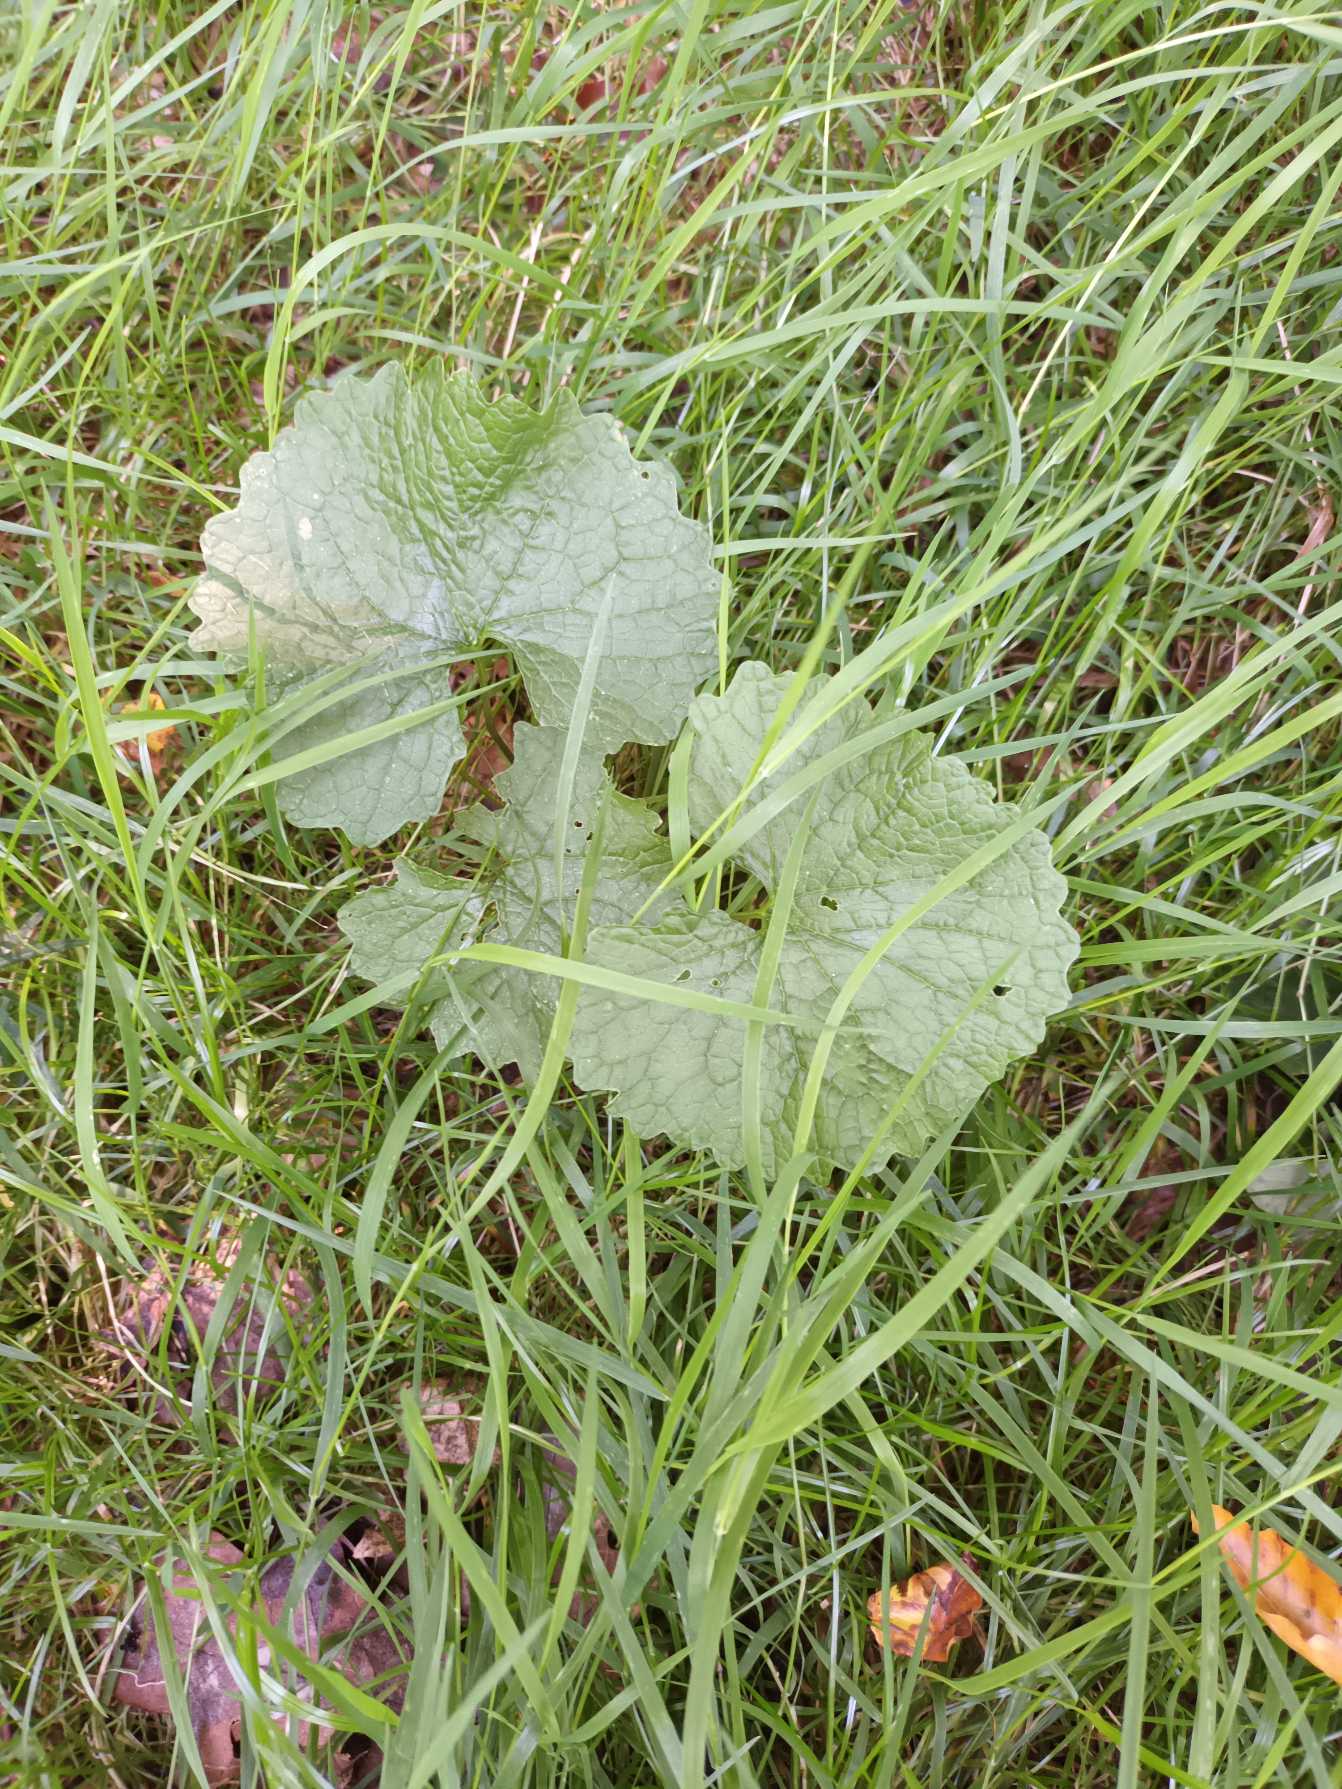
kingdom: Plantae
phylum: Tracheophyta
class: Magnoliopsida
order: Brassicales
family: Brassicaceae
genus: Alliaria
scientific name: Alliaria petiolata
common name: Løgkarse
